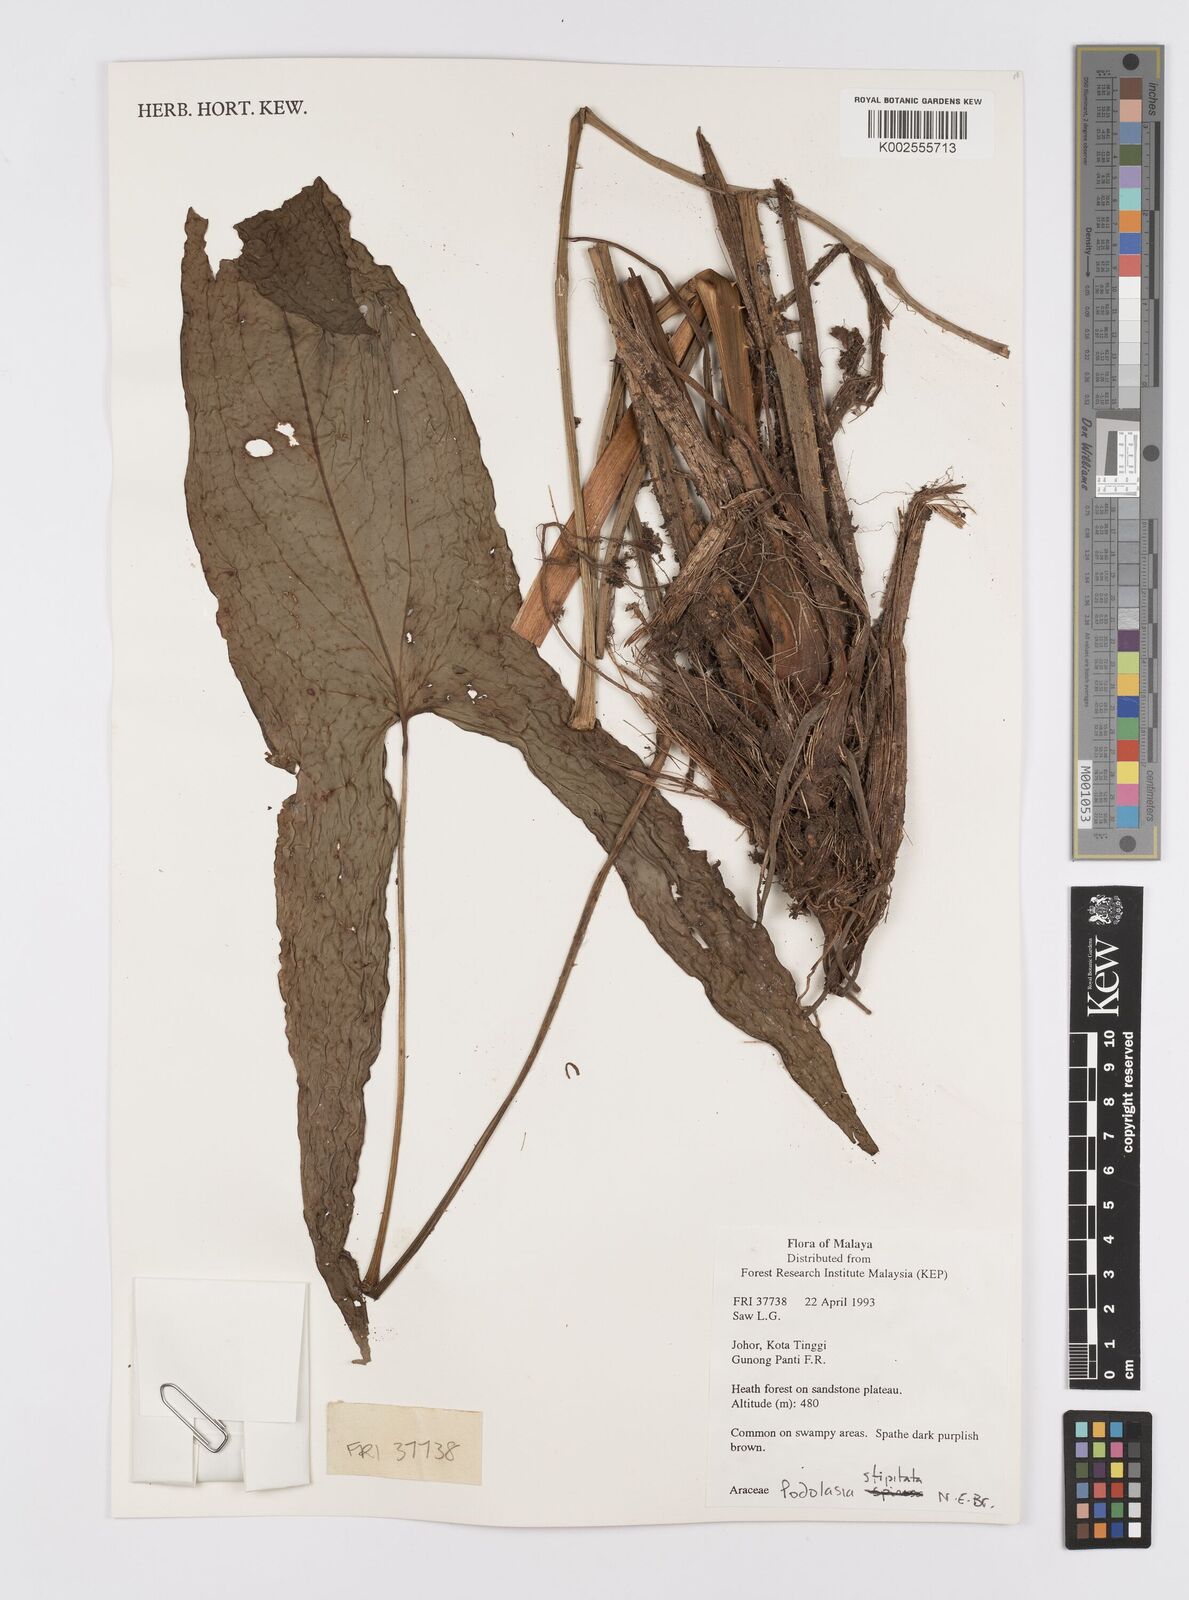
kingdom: Plantae
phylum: Tracheophyta
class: Liliopsida
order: Alismatales
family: Araceae
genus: Podolasia
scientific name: Podolasia stipitata
